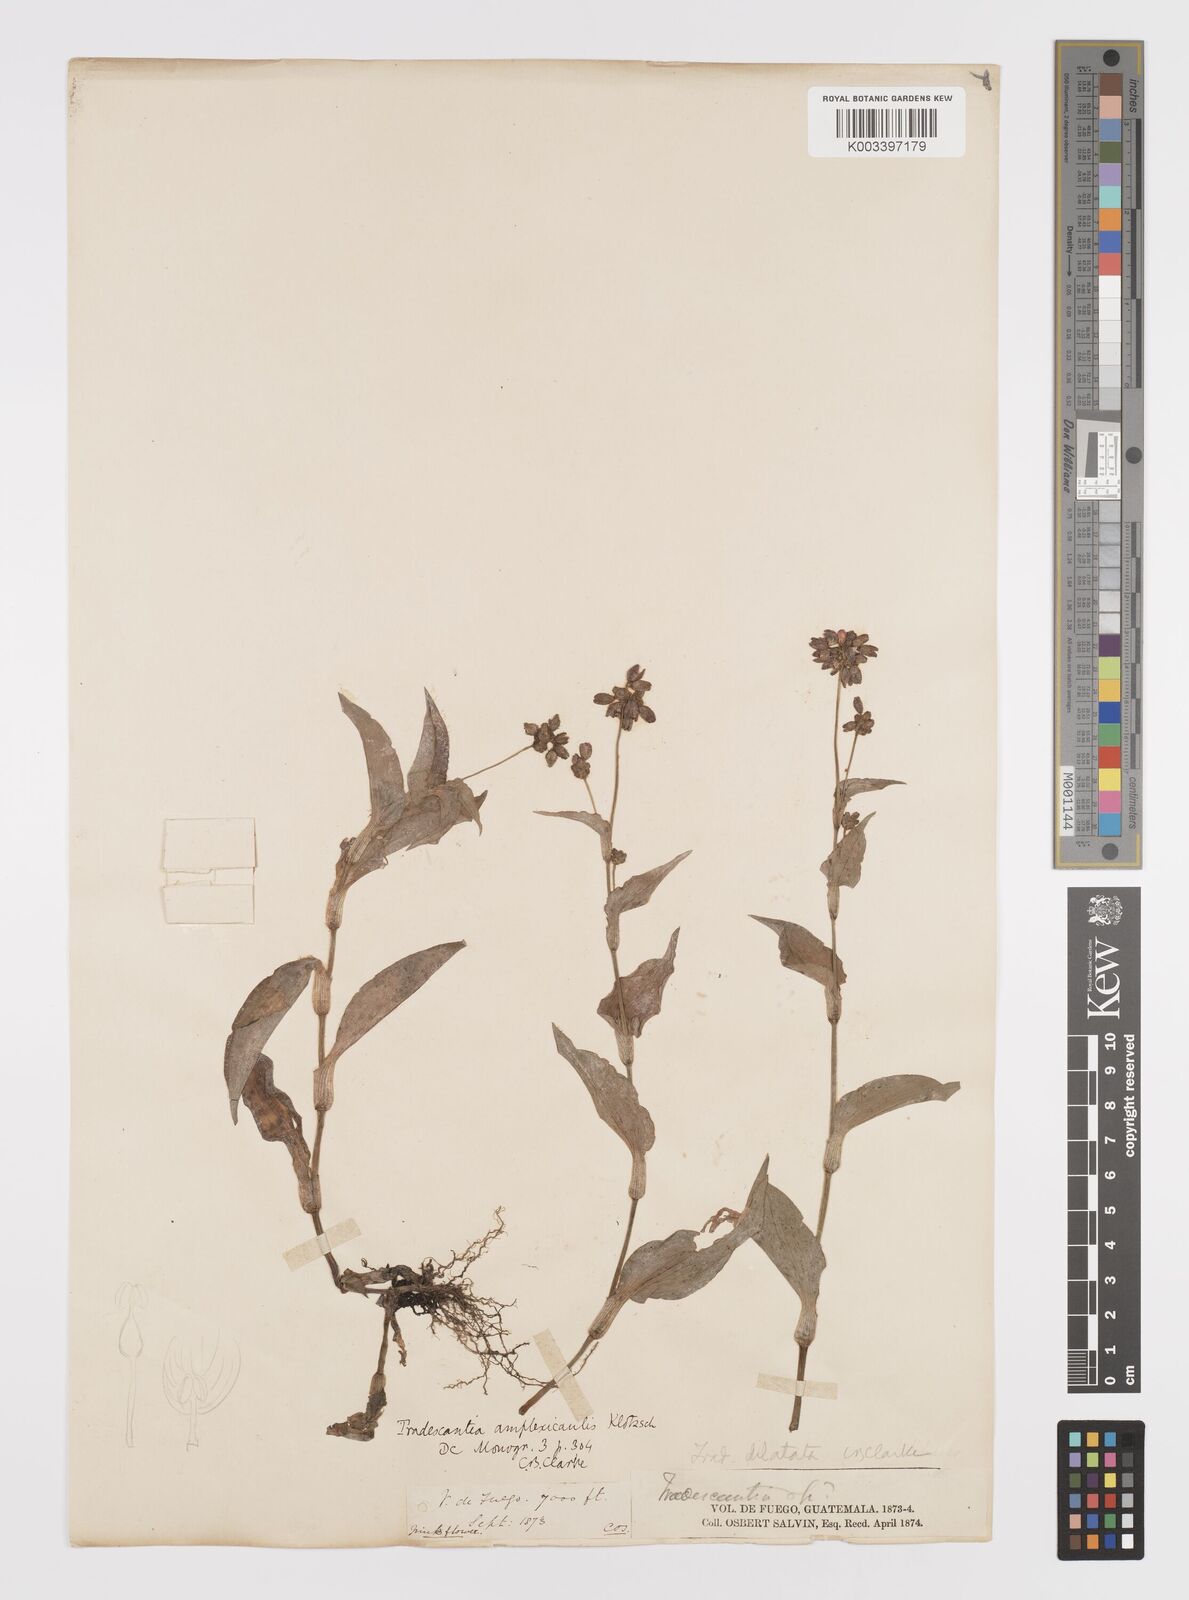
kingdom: Plantae
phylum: Tracheophyta
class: Liliopsida
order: Commelinales
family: Commelinaceae
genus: Callisia
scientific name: Callisia disgrega
